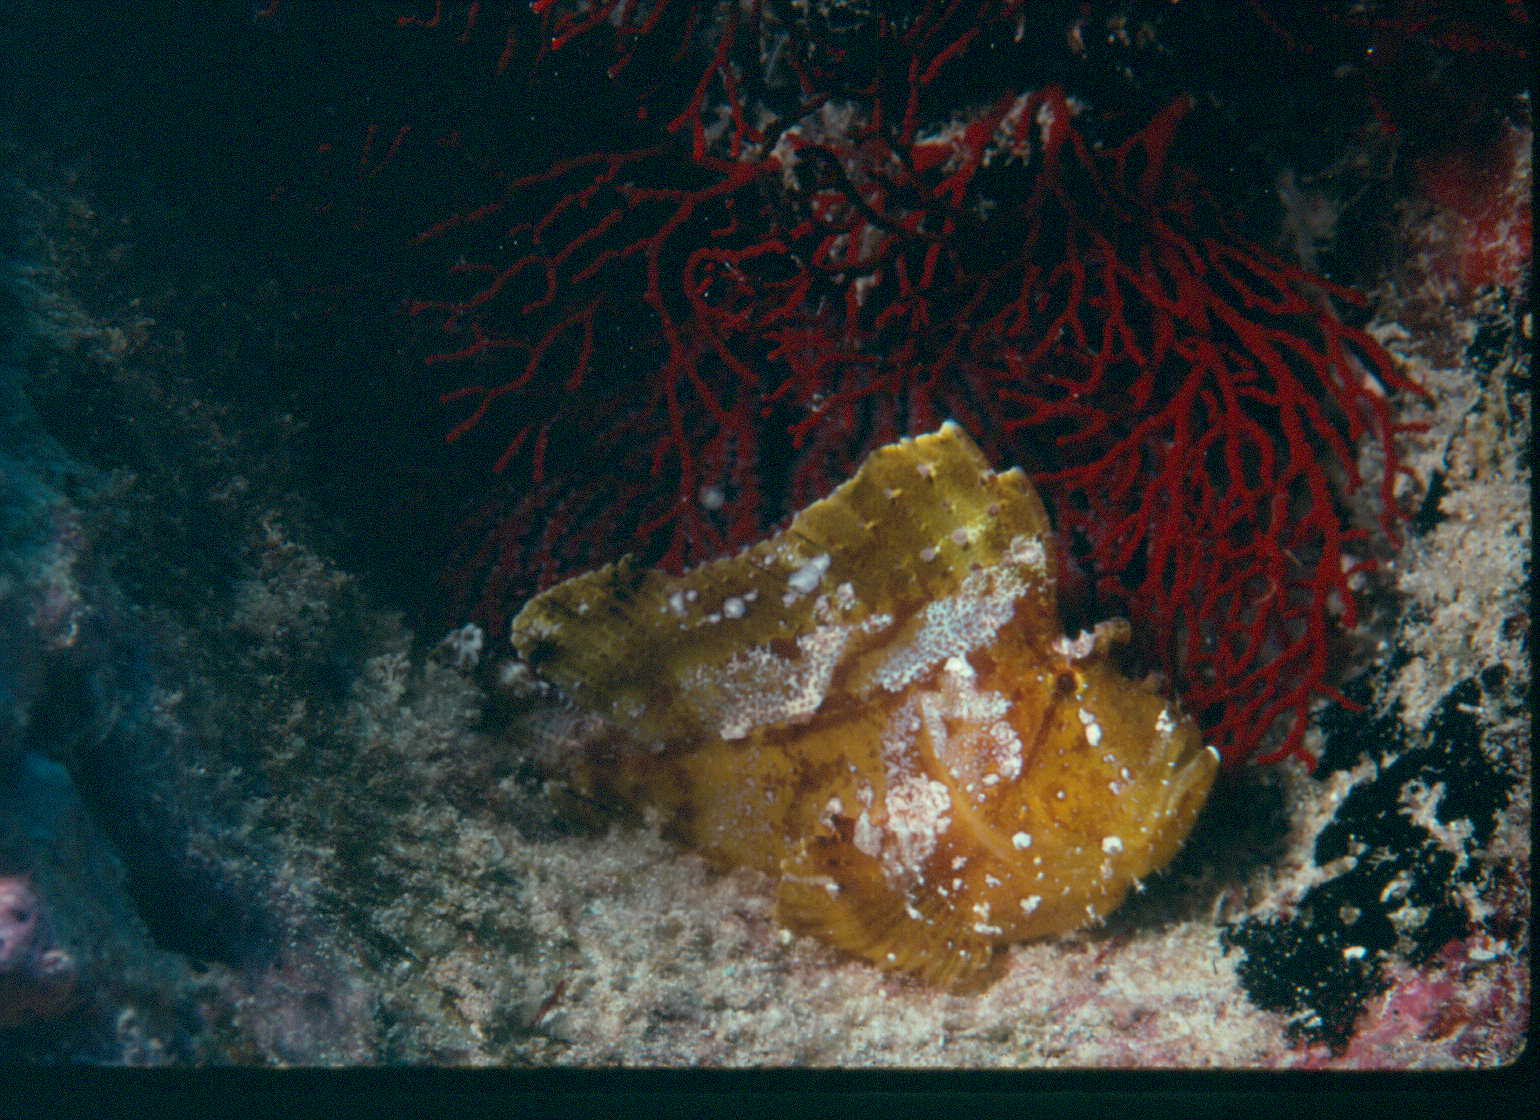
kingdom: Animalia
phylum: Chordata
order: Scorpaeniformes
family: Scorpaenidae
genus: Taenianotus
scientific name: Taenianotus triacanthus
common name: Leaf scorpionfish
